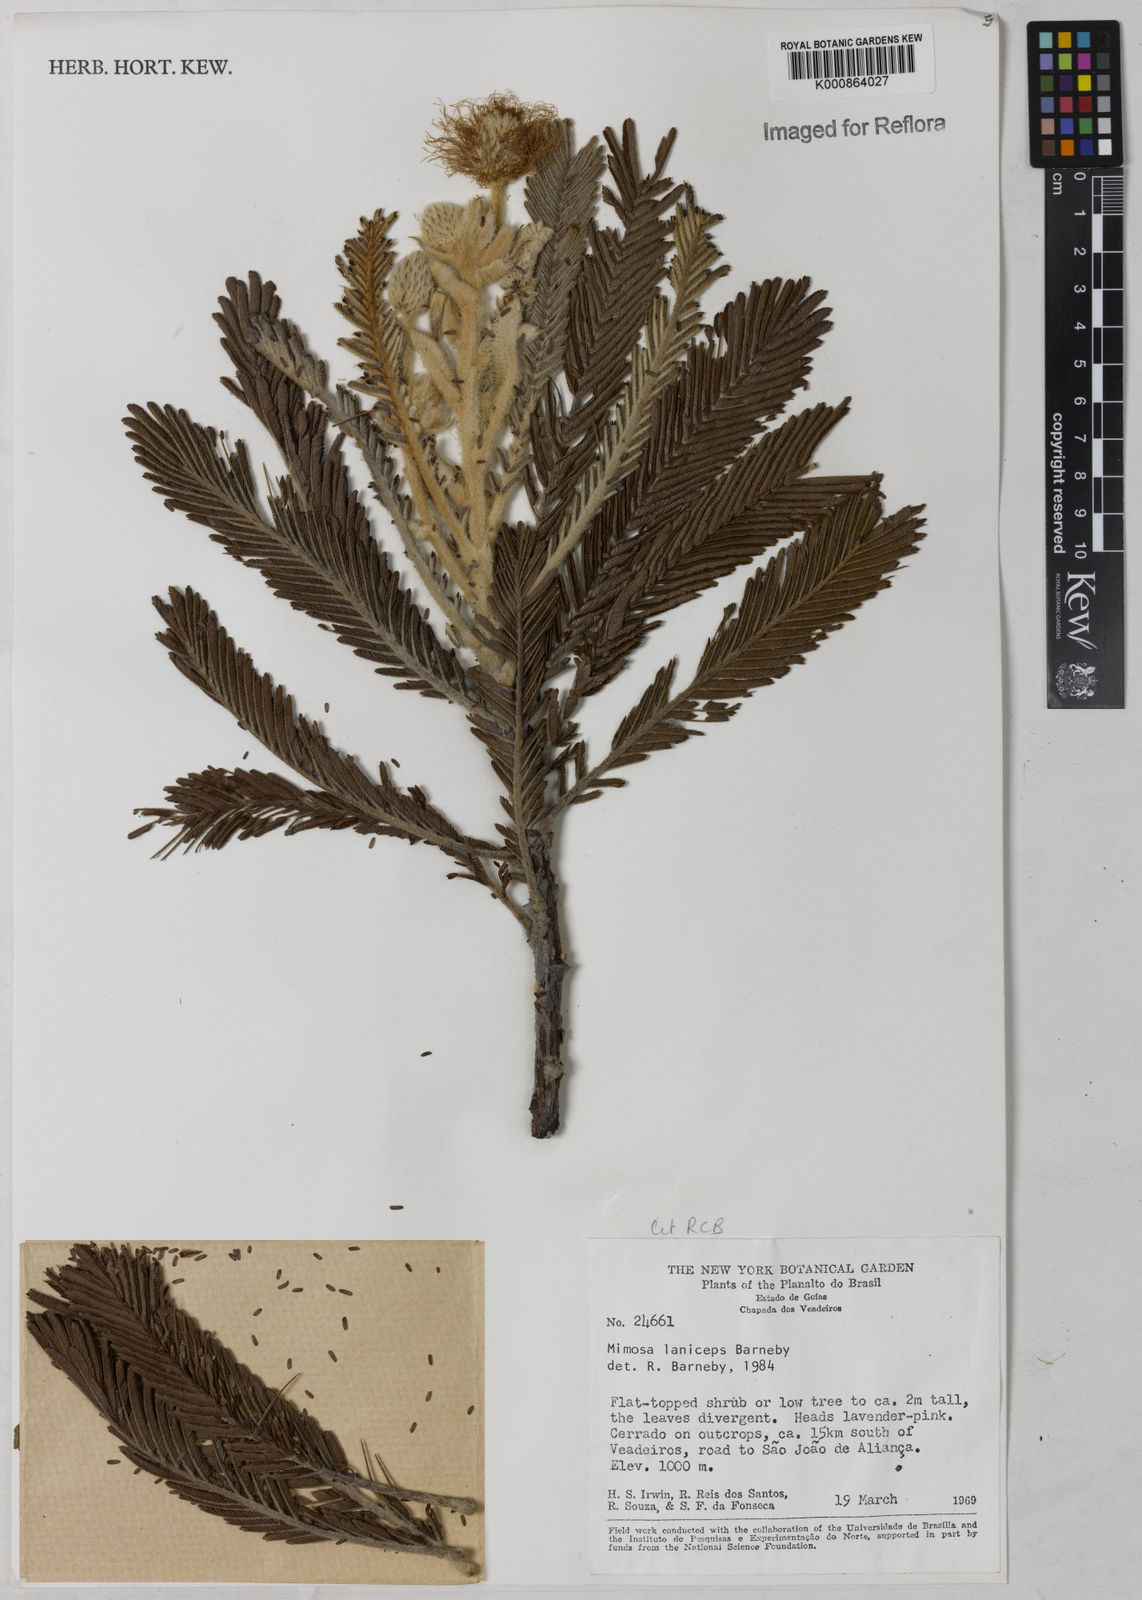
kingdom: Plantae
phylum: Tracheophyta
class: Magnoliopsida
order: Fabales
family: Fabaceae
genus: Mimosa
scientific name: Mimosa laniceps
